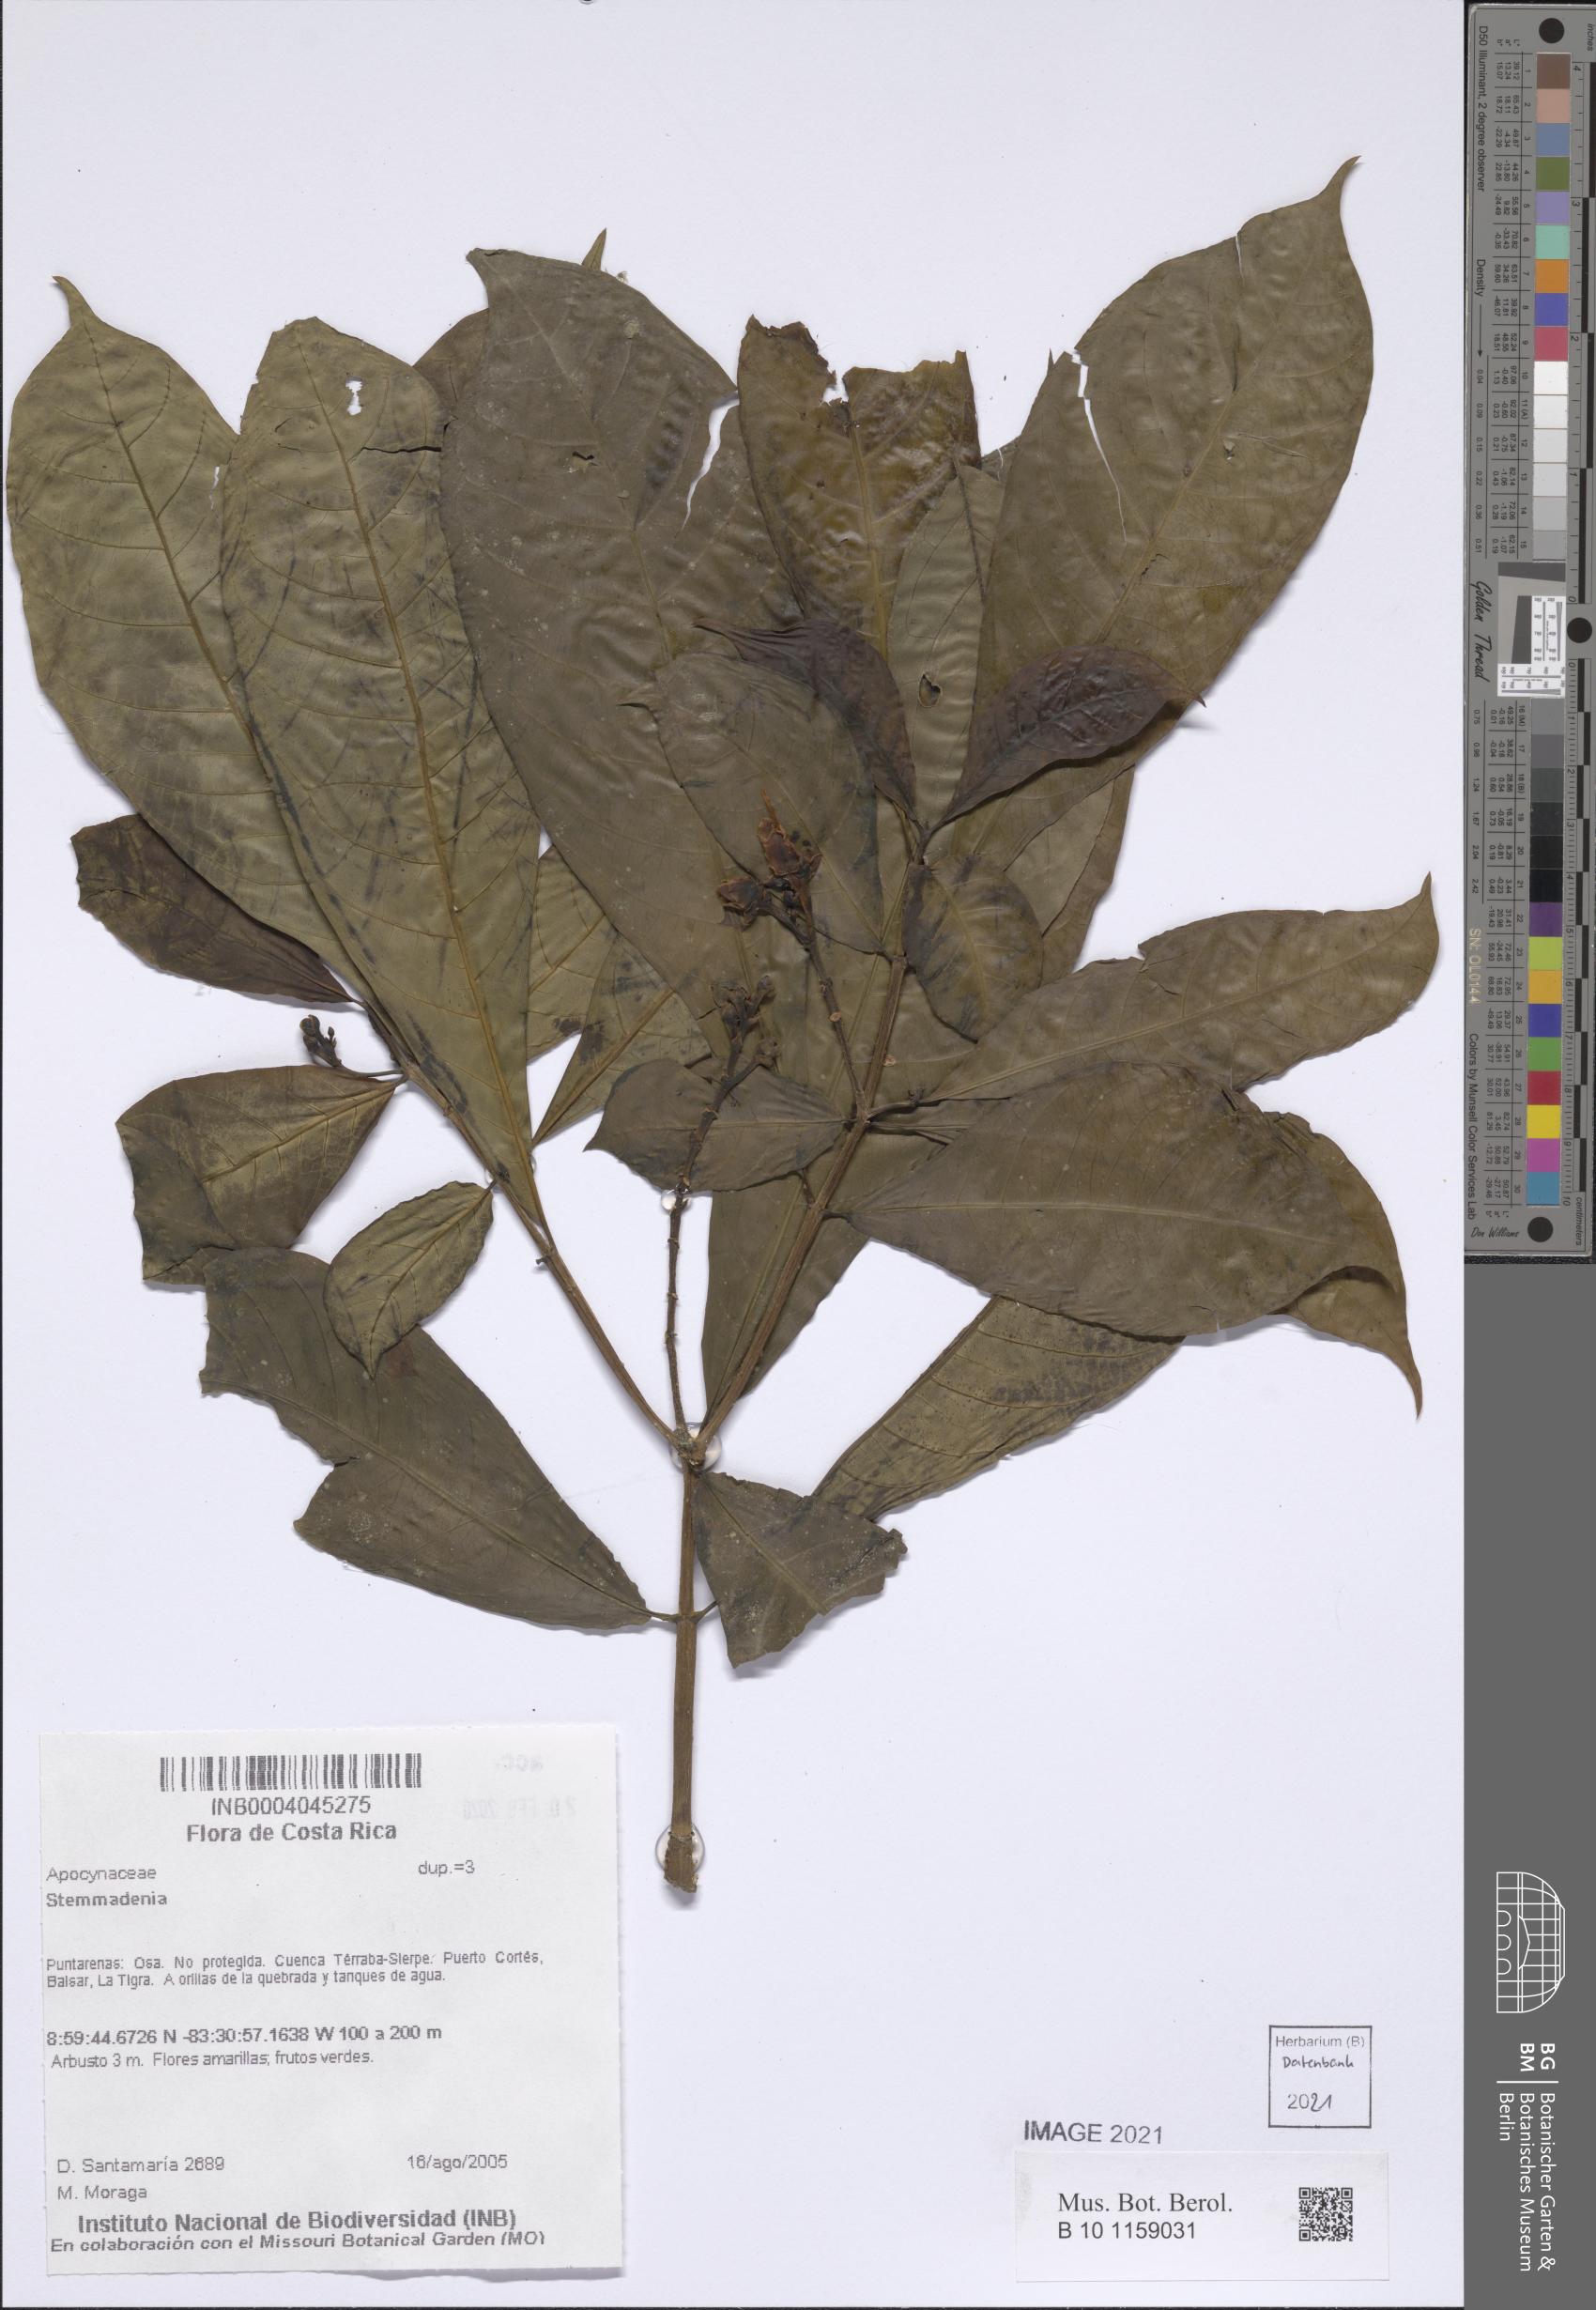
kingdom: Plantae
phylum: Tracheophyta
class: Magnoliopsida
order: Gentianales
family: Apocynaceae
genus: Tabernaemontana
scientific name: Tabernaemontana
